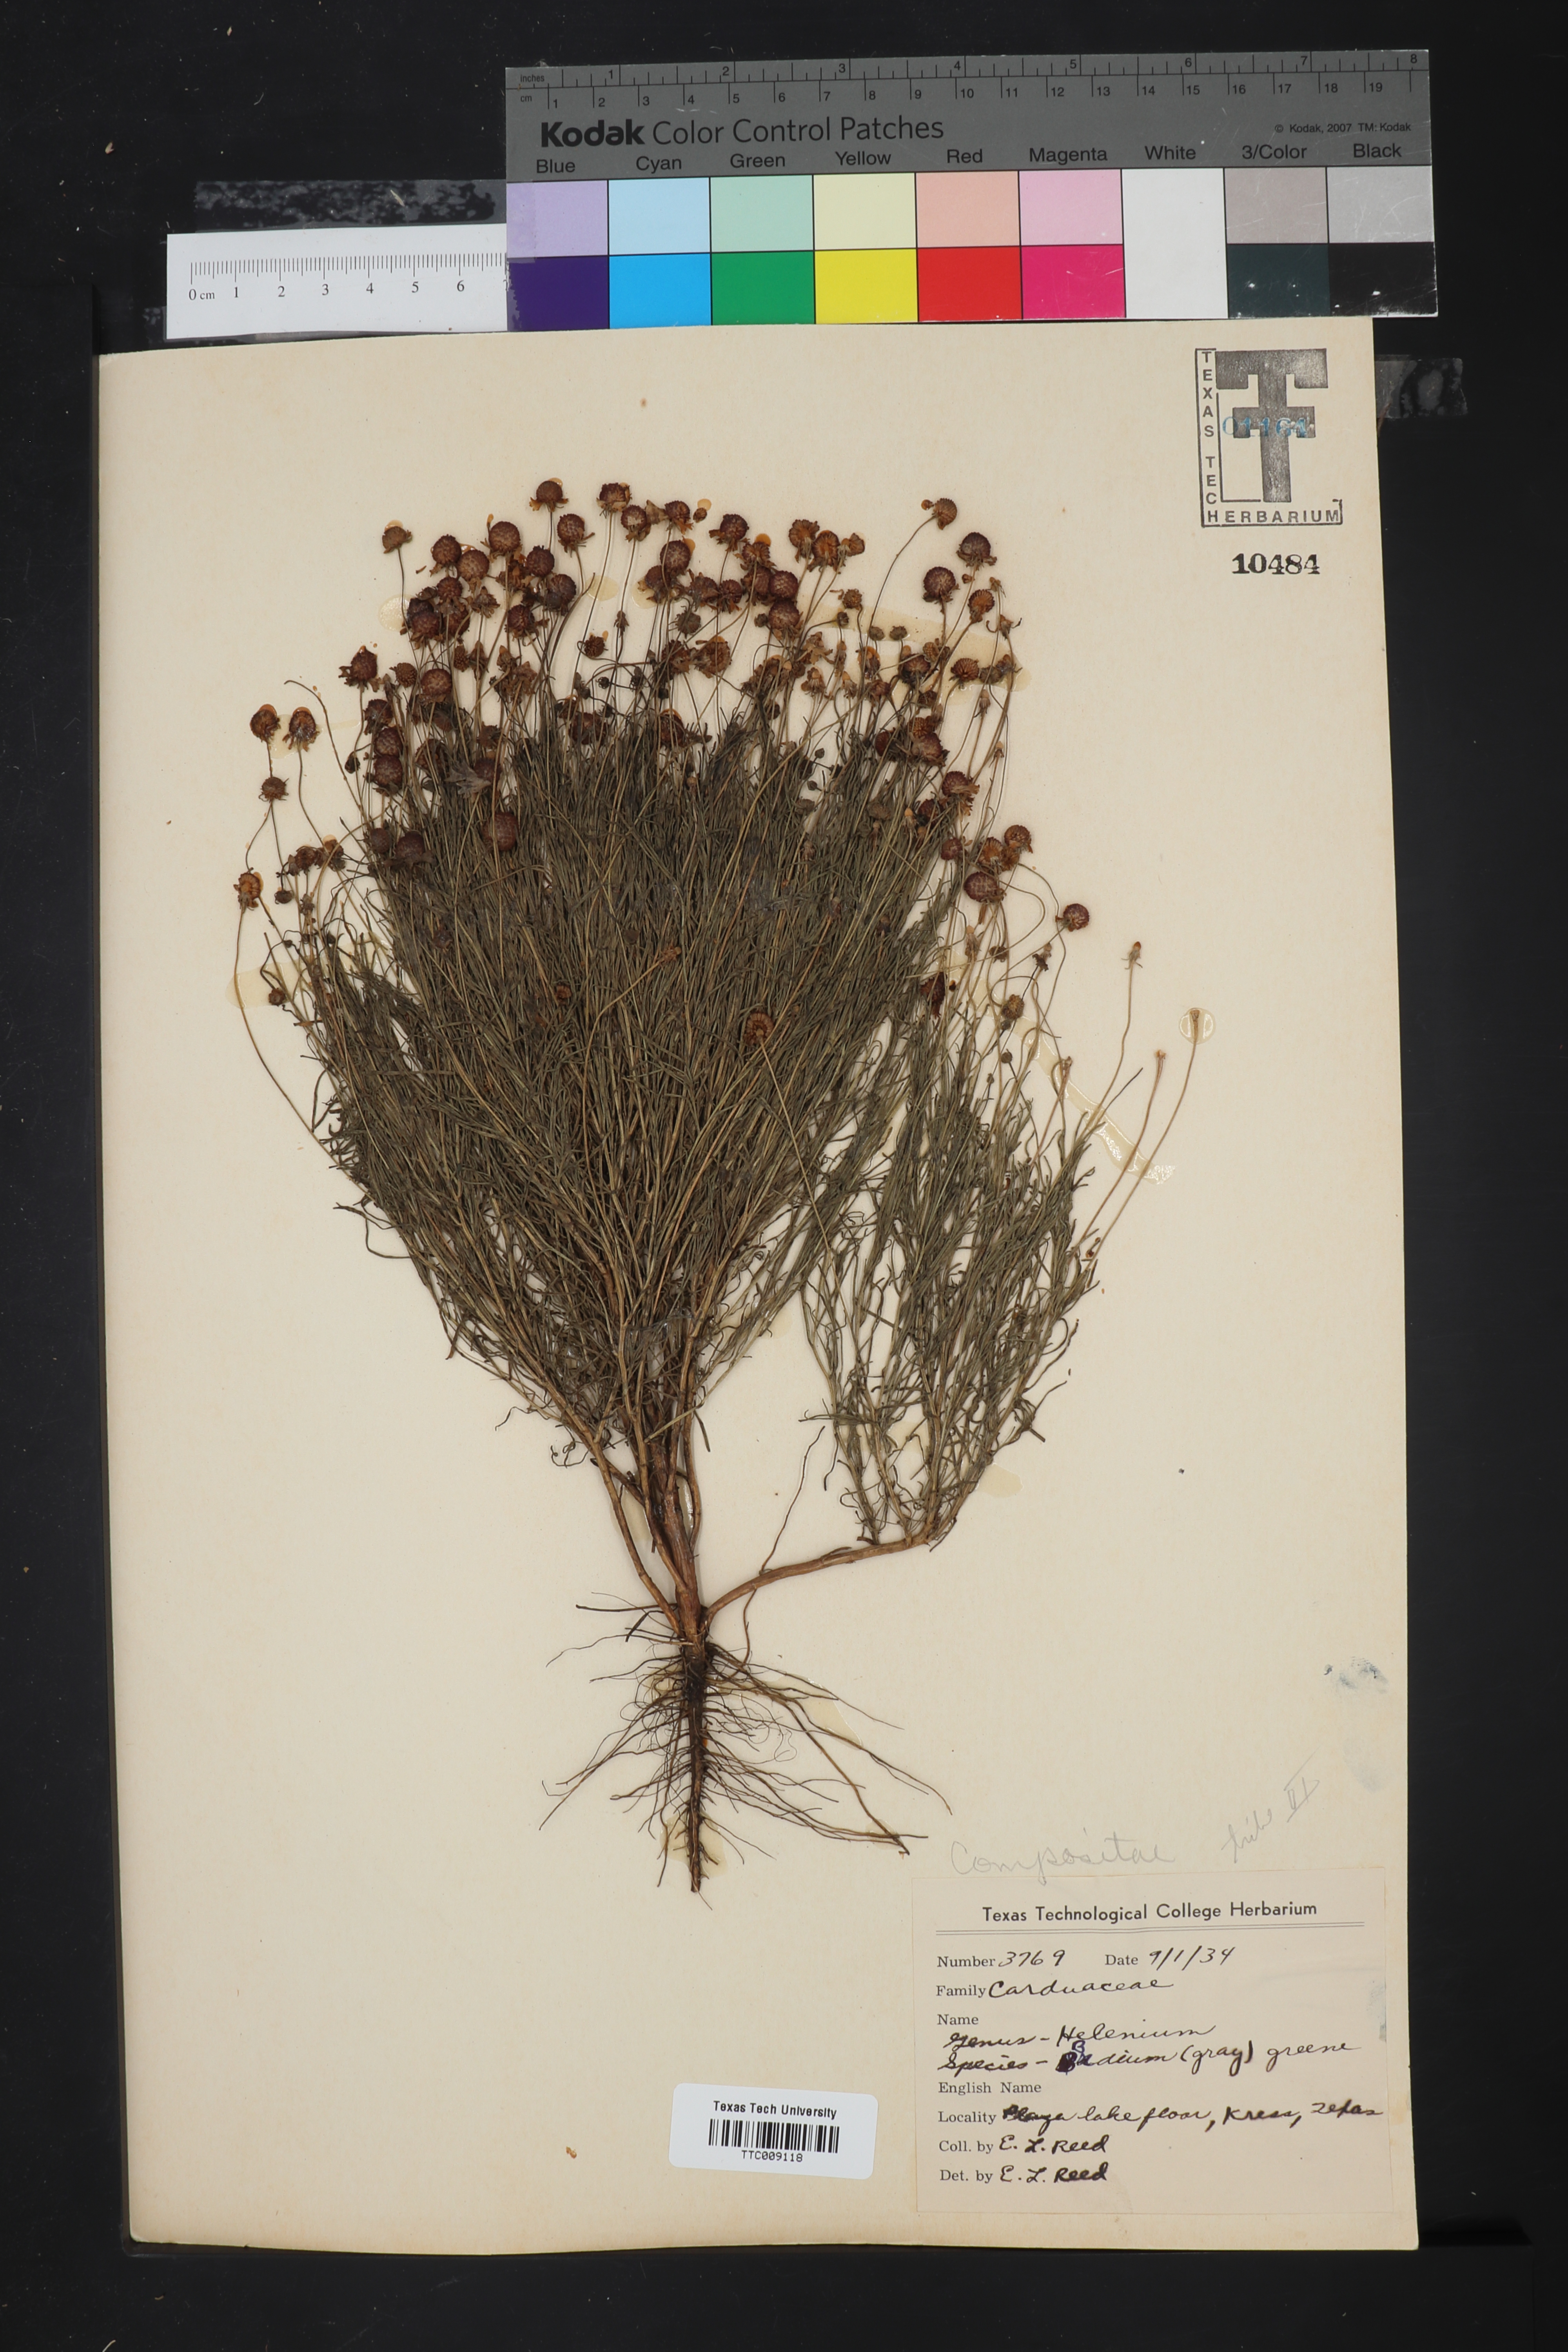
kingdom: Plantae
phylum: Tracheophyta
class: Magnoliopsida
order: Asterales
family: Asteraceae
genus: Helenium
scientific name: Helenium amarum
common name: Bitter sneezeweed
